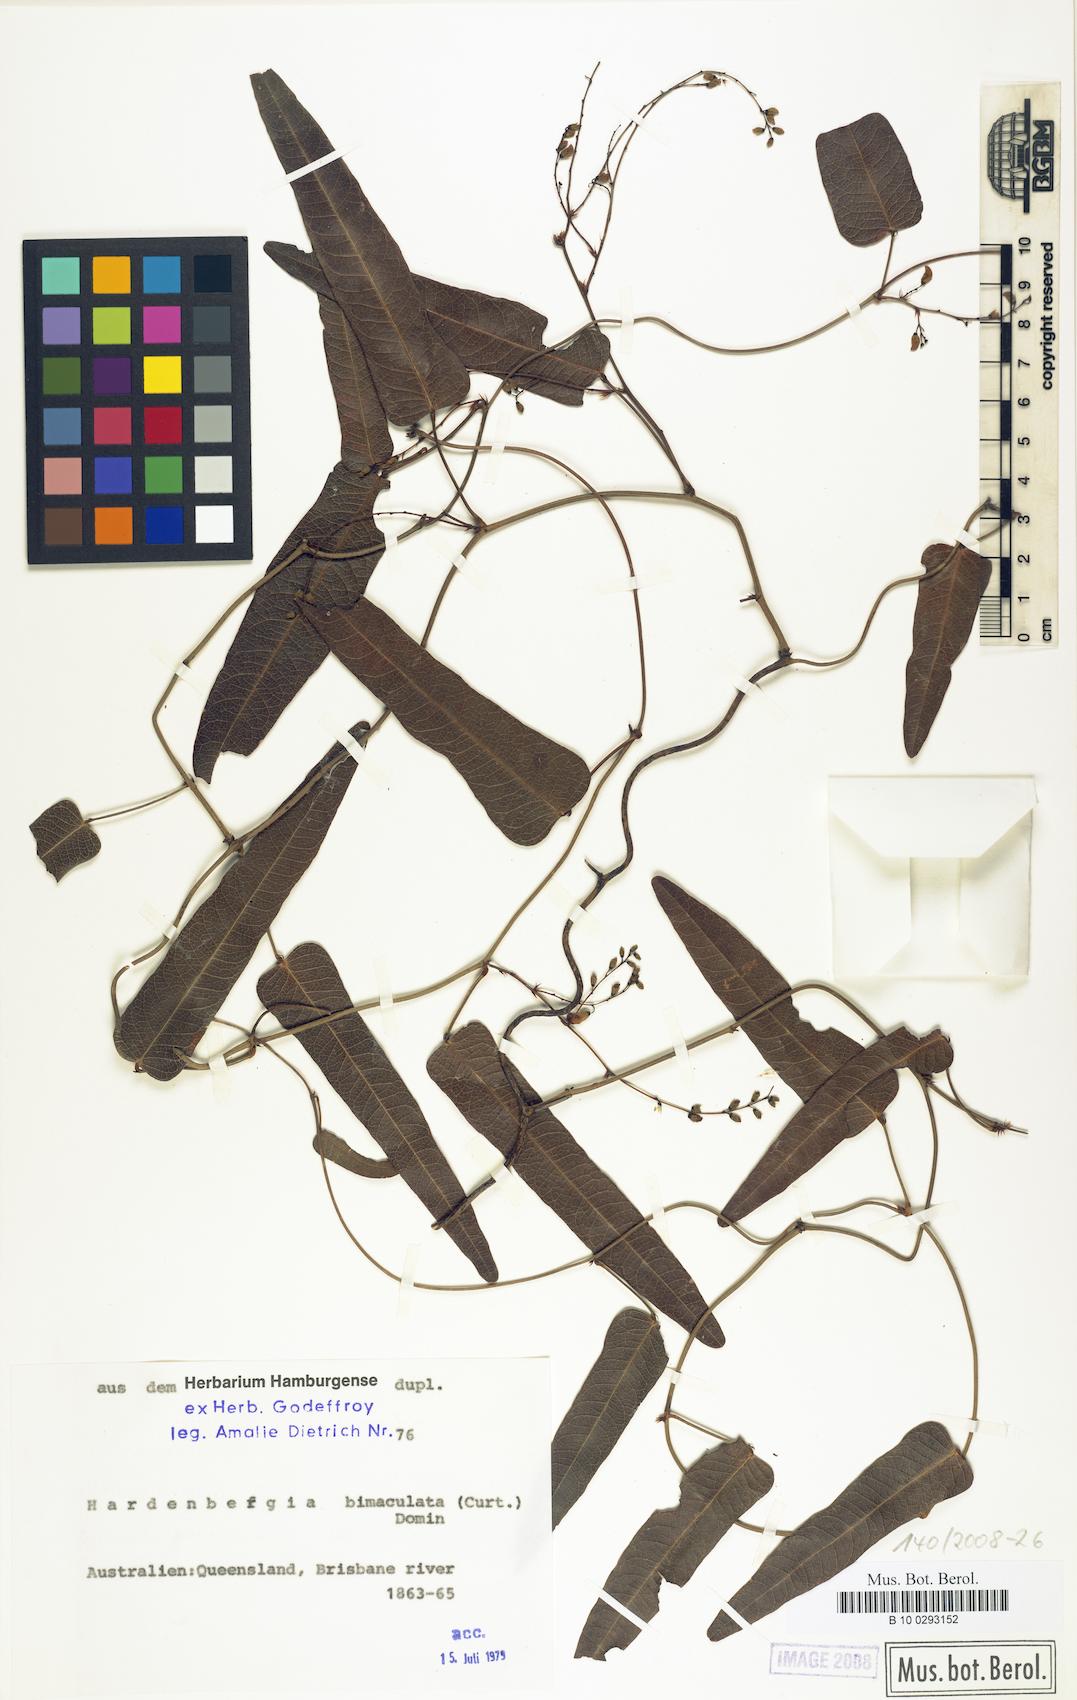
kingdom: Plantae
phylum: Tracheophyta
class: Magnoliopsida
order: Fabales
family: Fabaceae
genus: Hardenbergia
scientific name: Hardenbergia violacea
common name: Coral-pea
